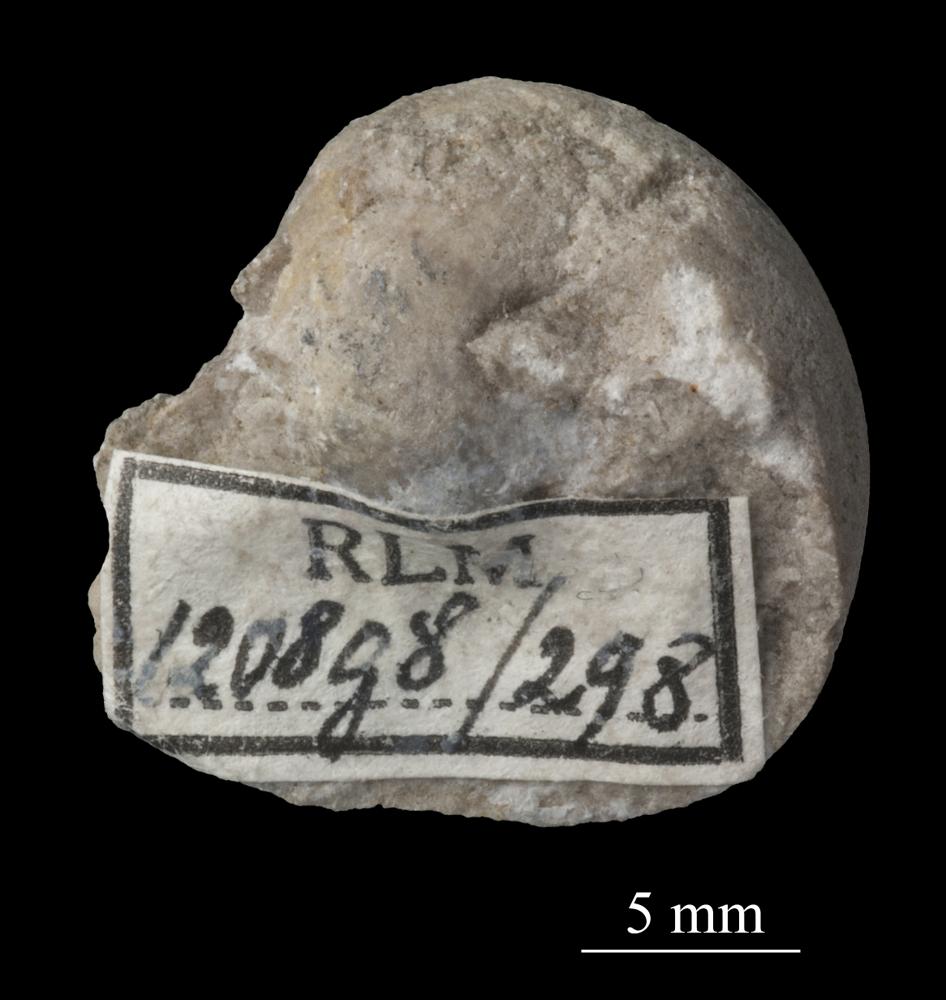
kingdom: Animalia
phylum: Mollusca
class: Gastropoda
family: Bellerophontidae
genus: Bellerophon
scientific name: Bellerophon
